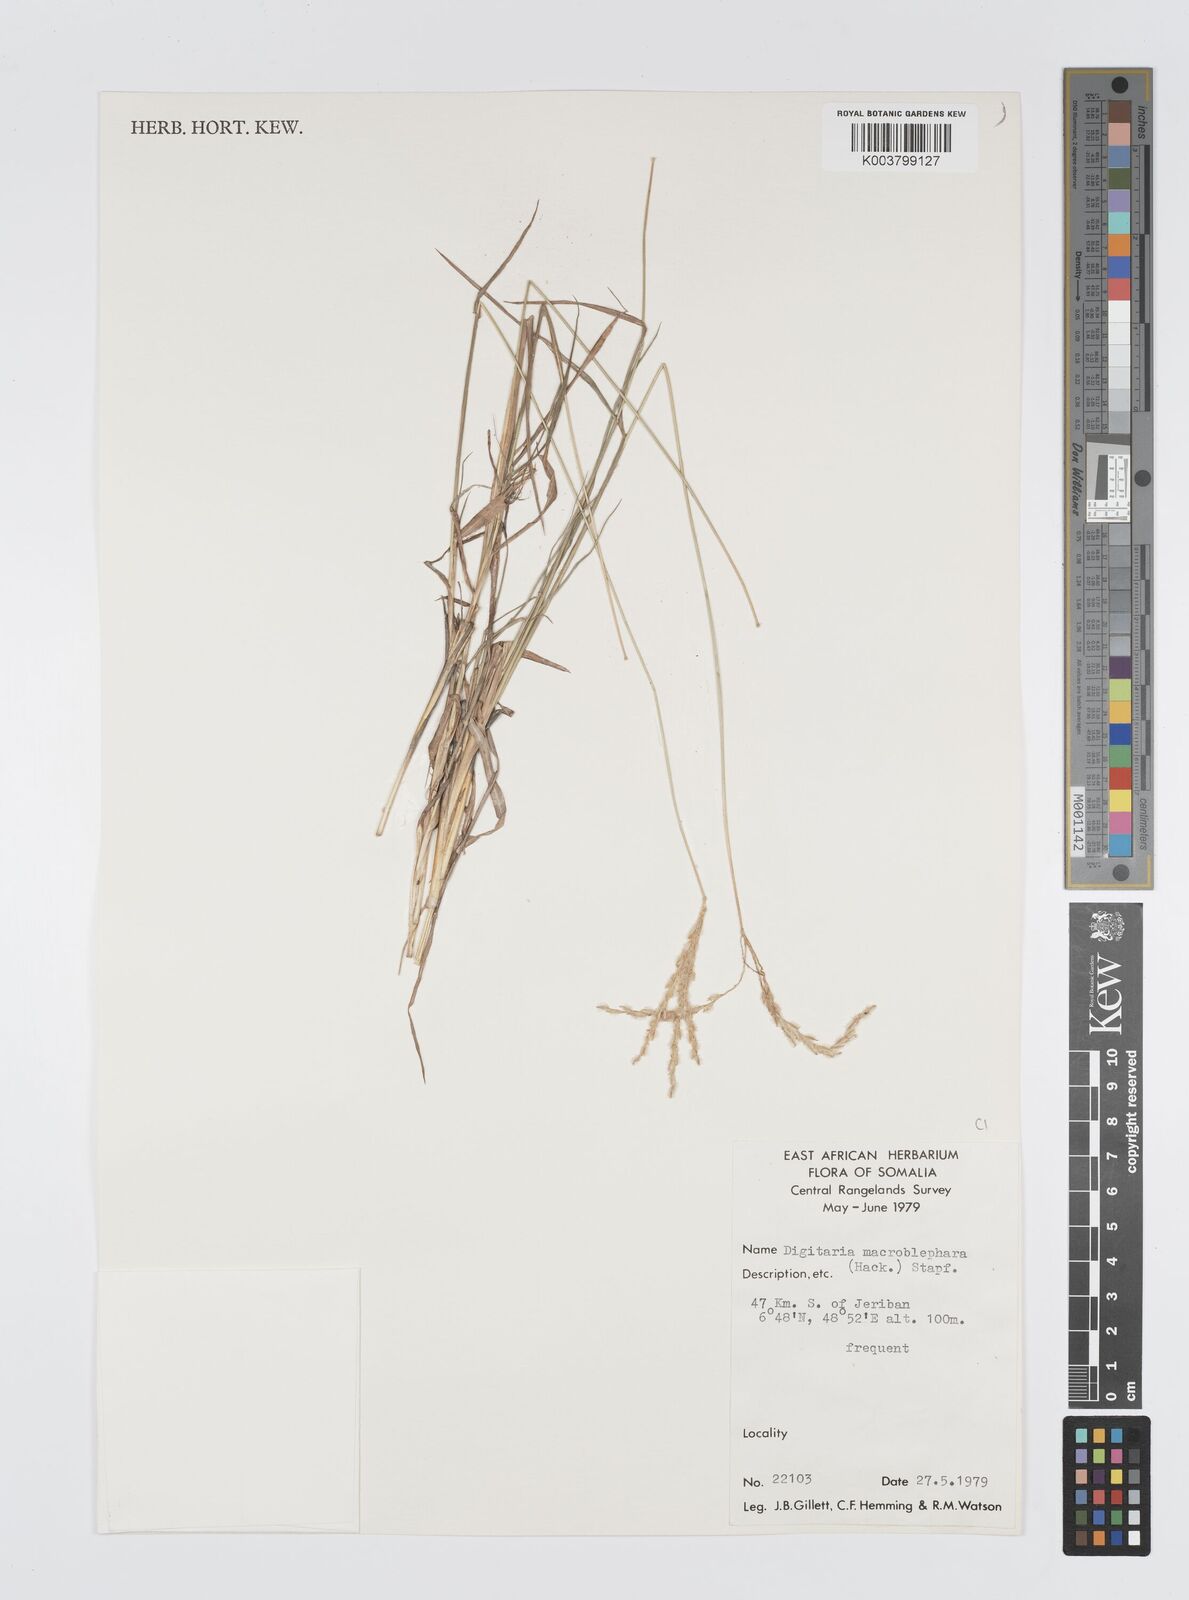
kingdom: Plantae
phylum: Tracheophyta
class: Liliopsida
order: Poales
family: Poaceae
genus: Digitaria
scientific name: Digitaria macroblephara
